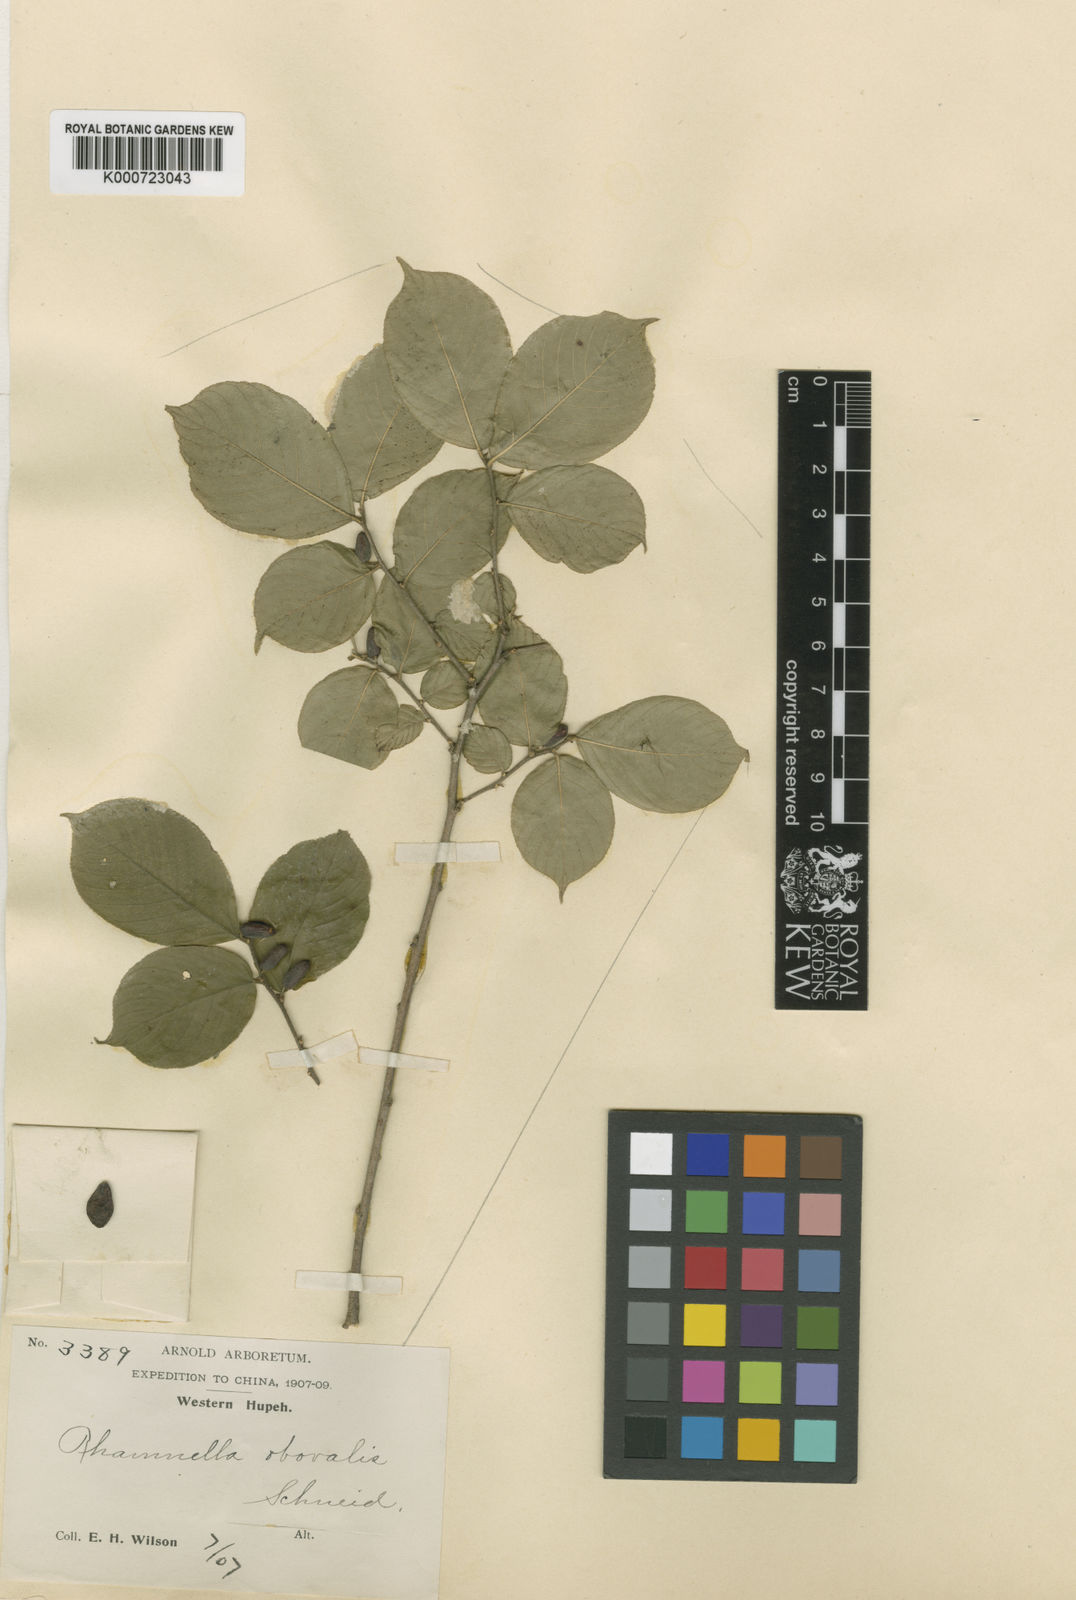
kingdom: Plantae
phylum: Tracheophyta
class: Magnoliopsida
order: Rosales
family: Rhamnaceae
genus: Rhamnella
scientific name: Rhamnella franguloides
